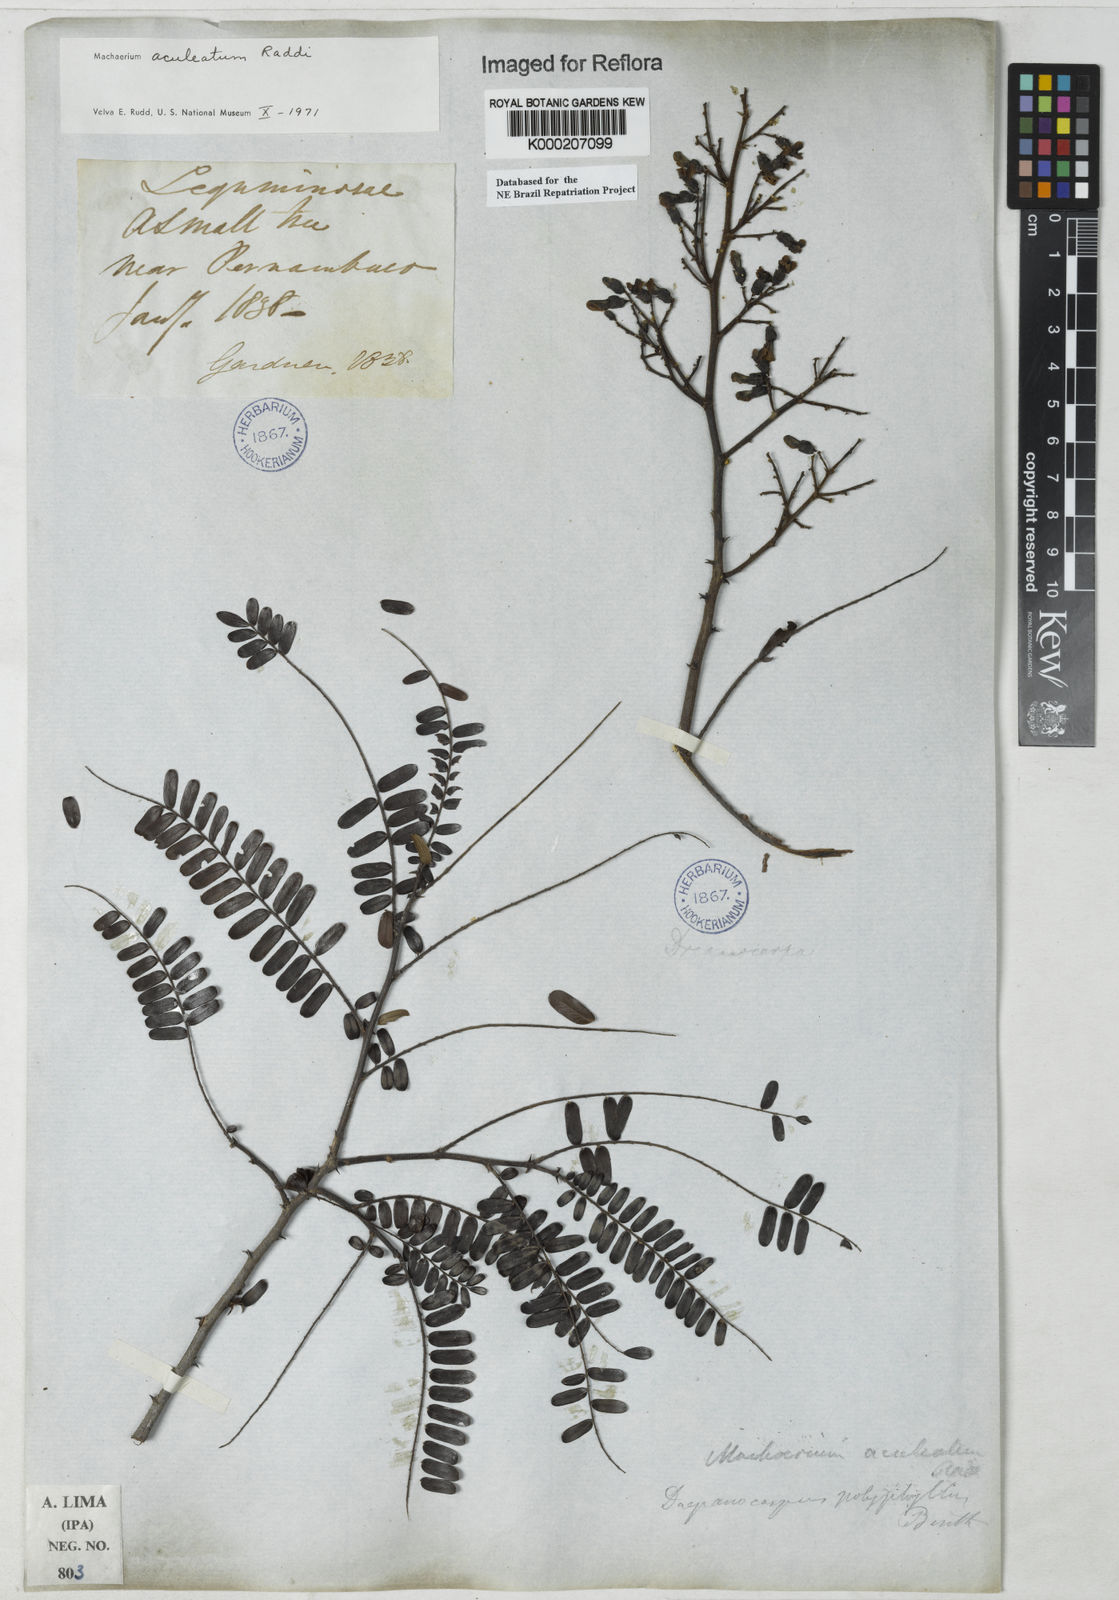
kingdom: Plantae
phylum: Tracheophyta
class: Magnoliopsida
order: Fabales
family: Fabaceae
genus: Machaerium
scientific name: Machaerium
